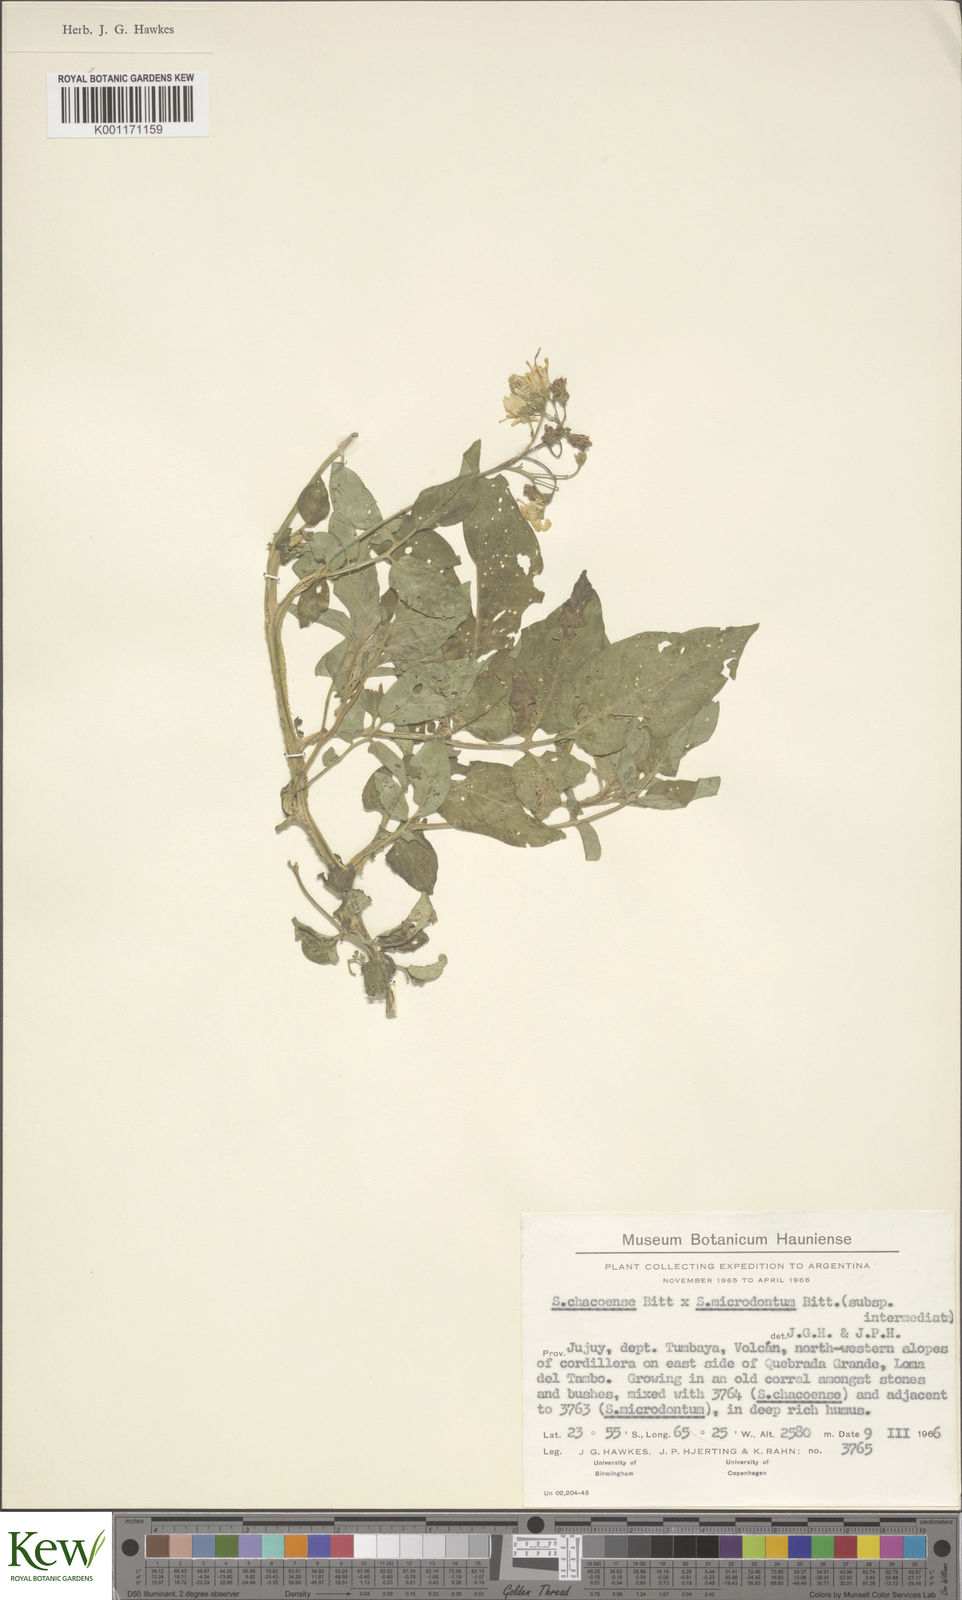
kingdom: Plantae
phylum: Tracheophyta
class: Magnoliopsida
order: Solanales
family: Solanaceae
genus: Solanum
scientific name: Solanum chacoense
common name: Chaco potato
